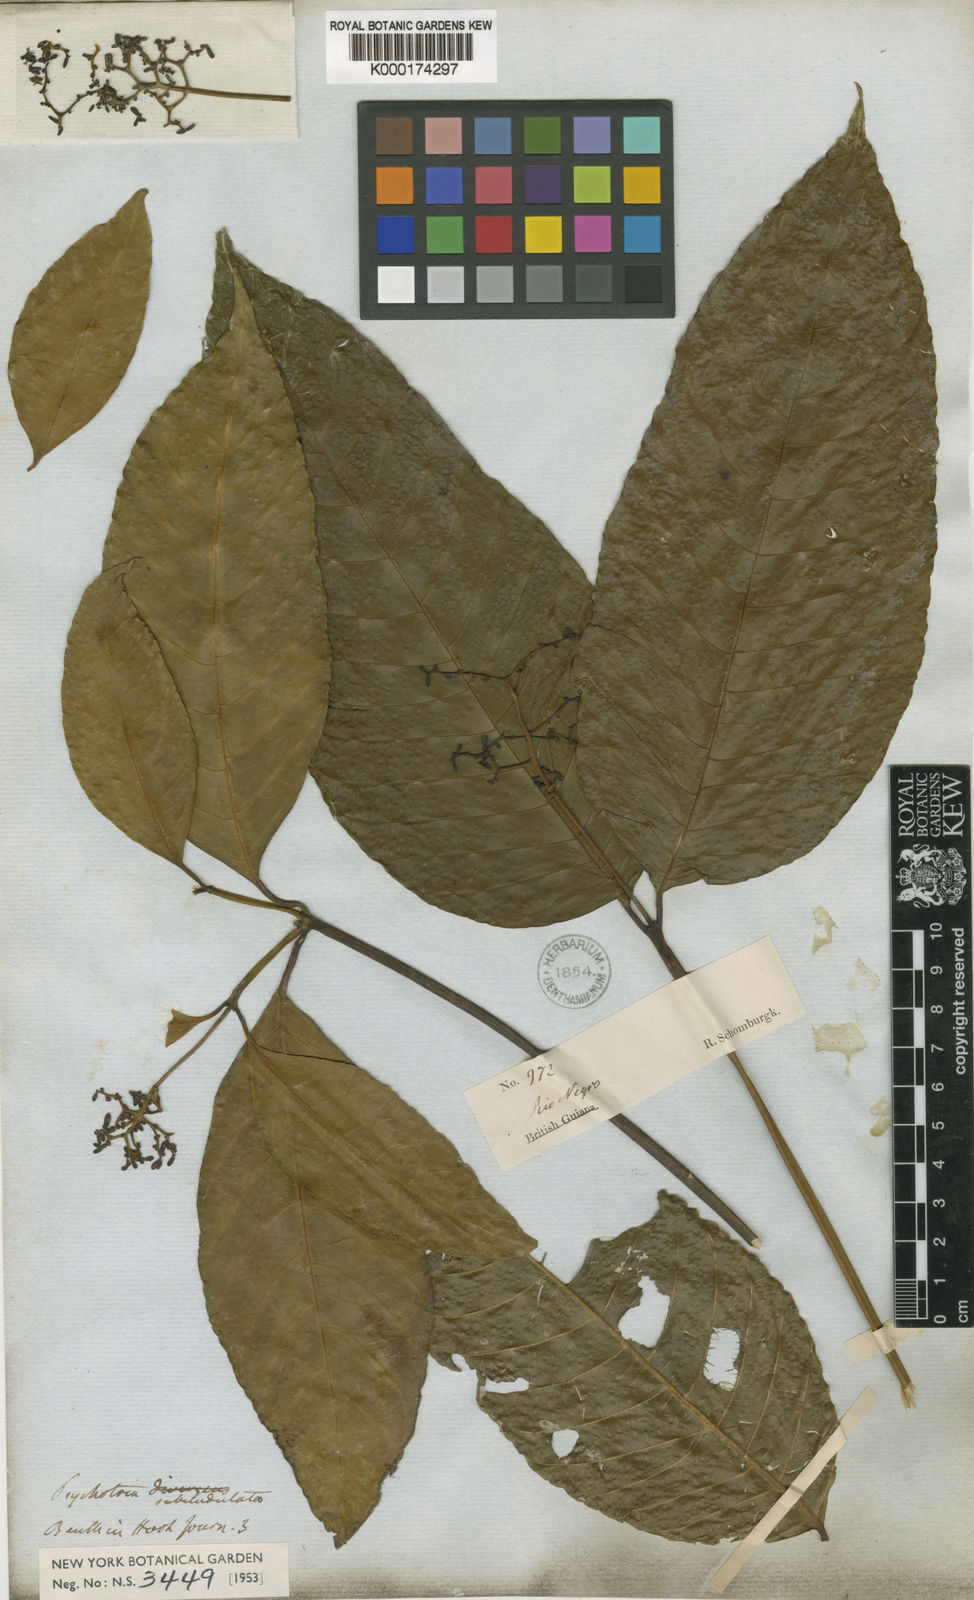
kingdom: Plantae
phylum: Tracheophyta
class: Magnoliopsida
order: Gentianales
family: Rubiaceae
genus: Palicourea
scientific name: Palicourea goyazensis
